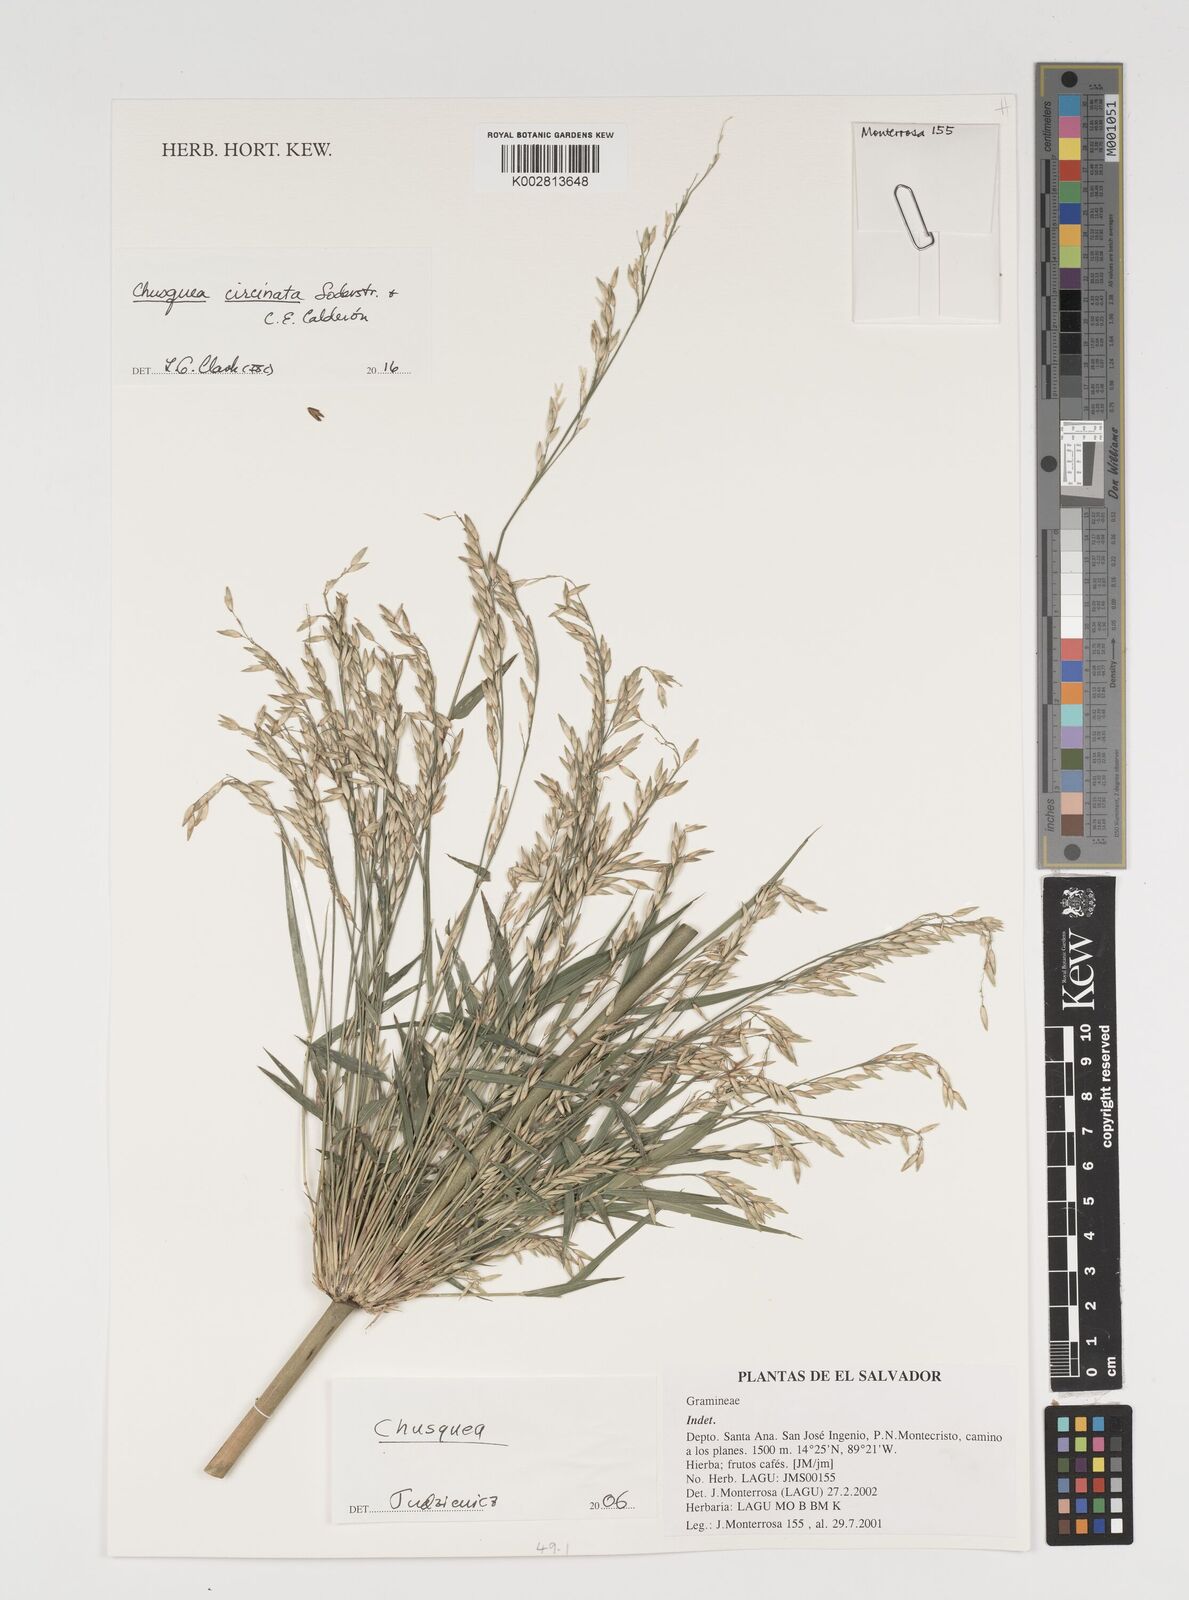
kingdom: Plantae
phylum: Tracheophyta
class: Liliopsida
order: Poales
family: Poaceae
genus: Chusquea
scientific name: Chusquea circinata
